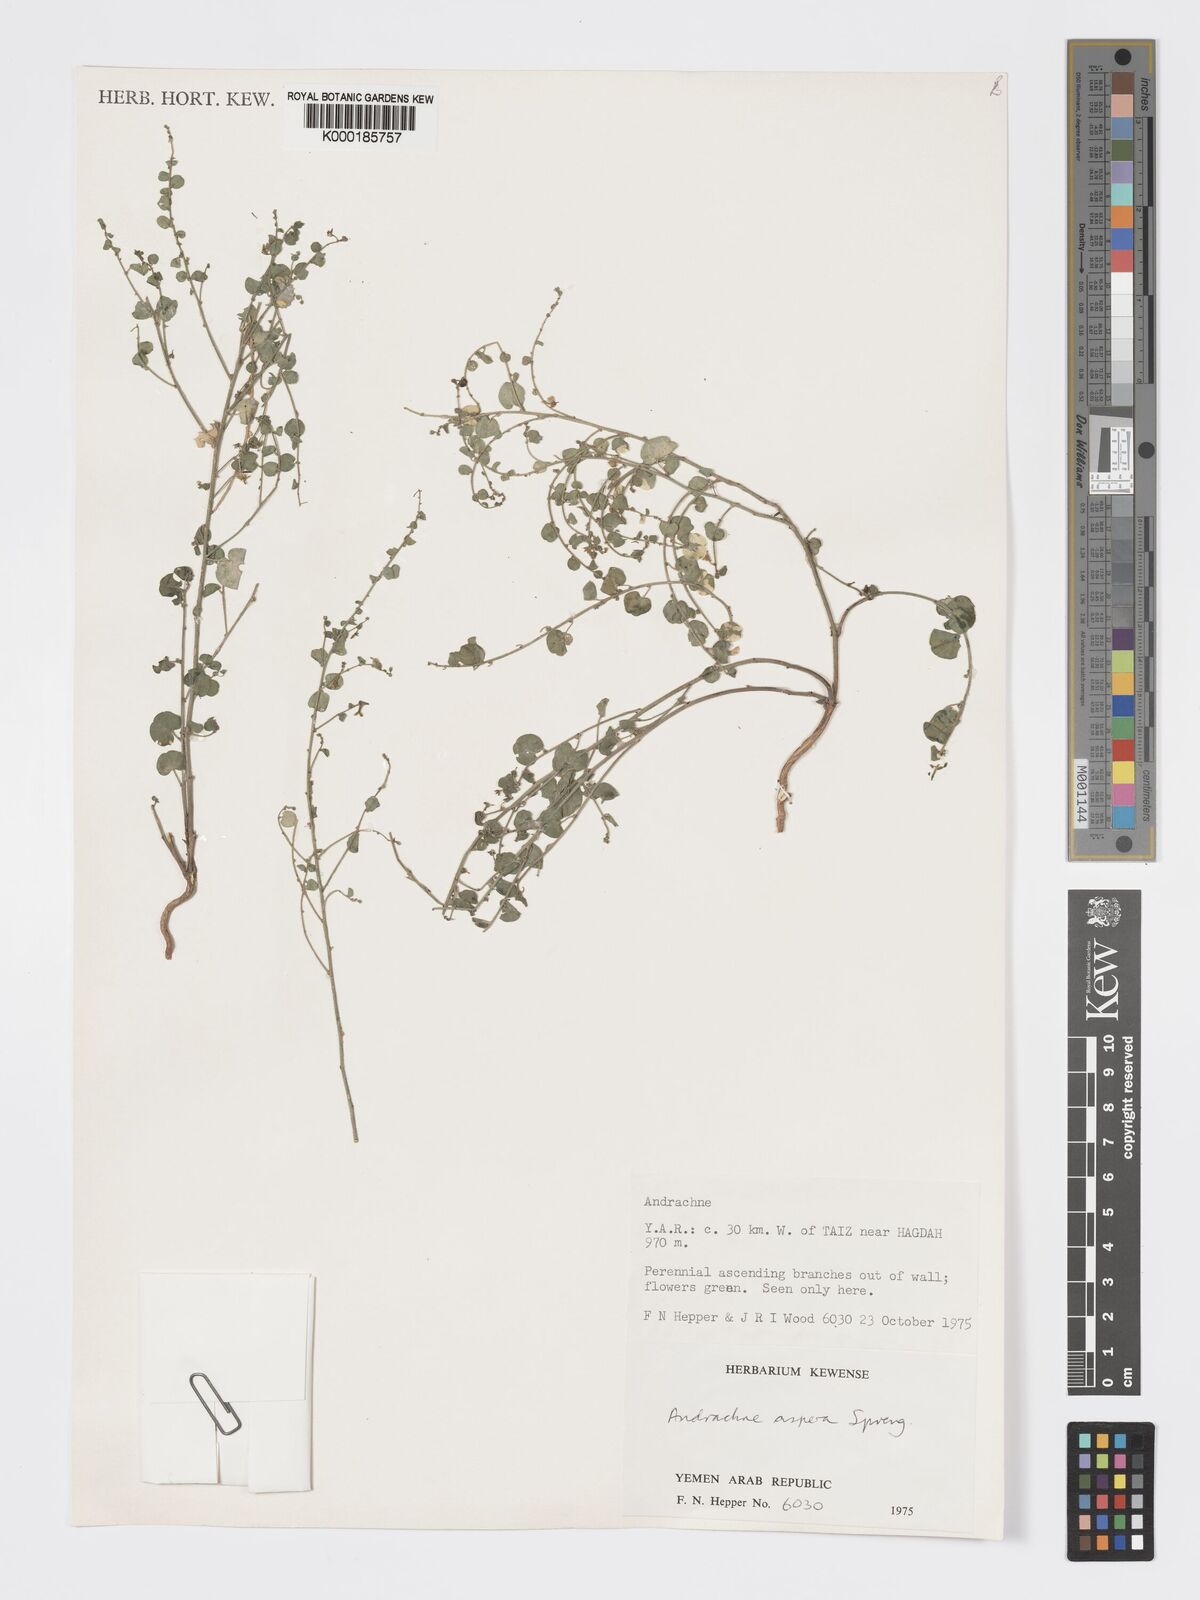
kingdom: Plantae
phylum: Tracheophyta
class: Magnoliopsida
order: Malpighiales
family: Phyllanthaceae
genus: Andrachne
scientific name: Andrachne aspera
